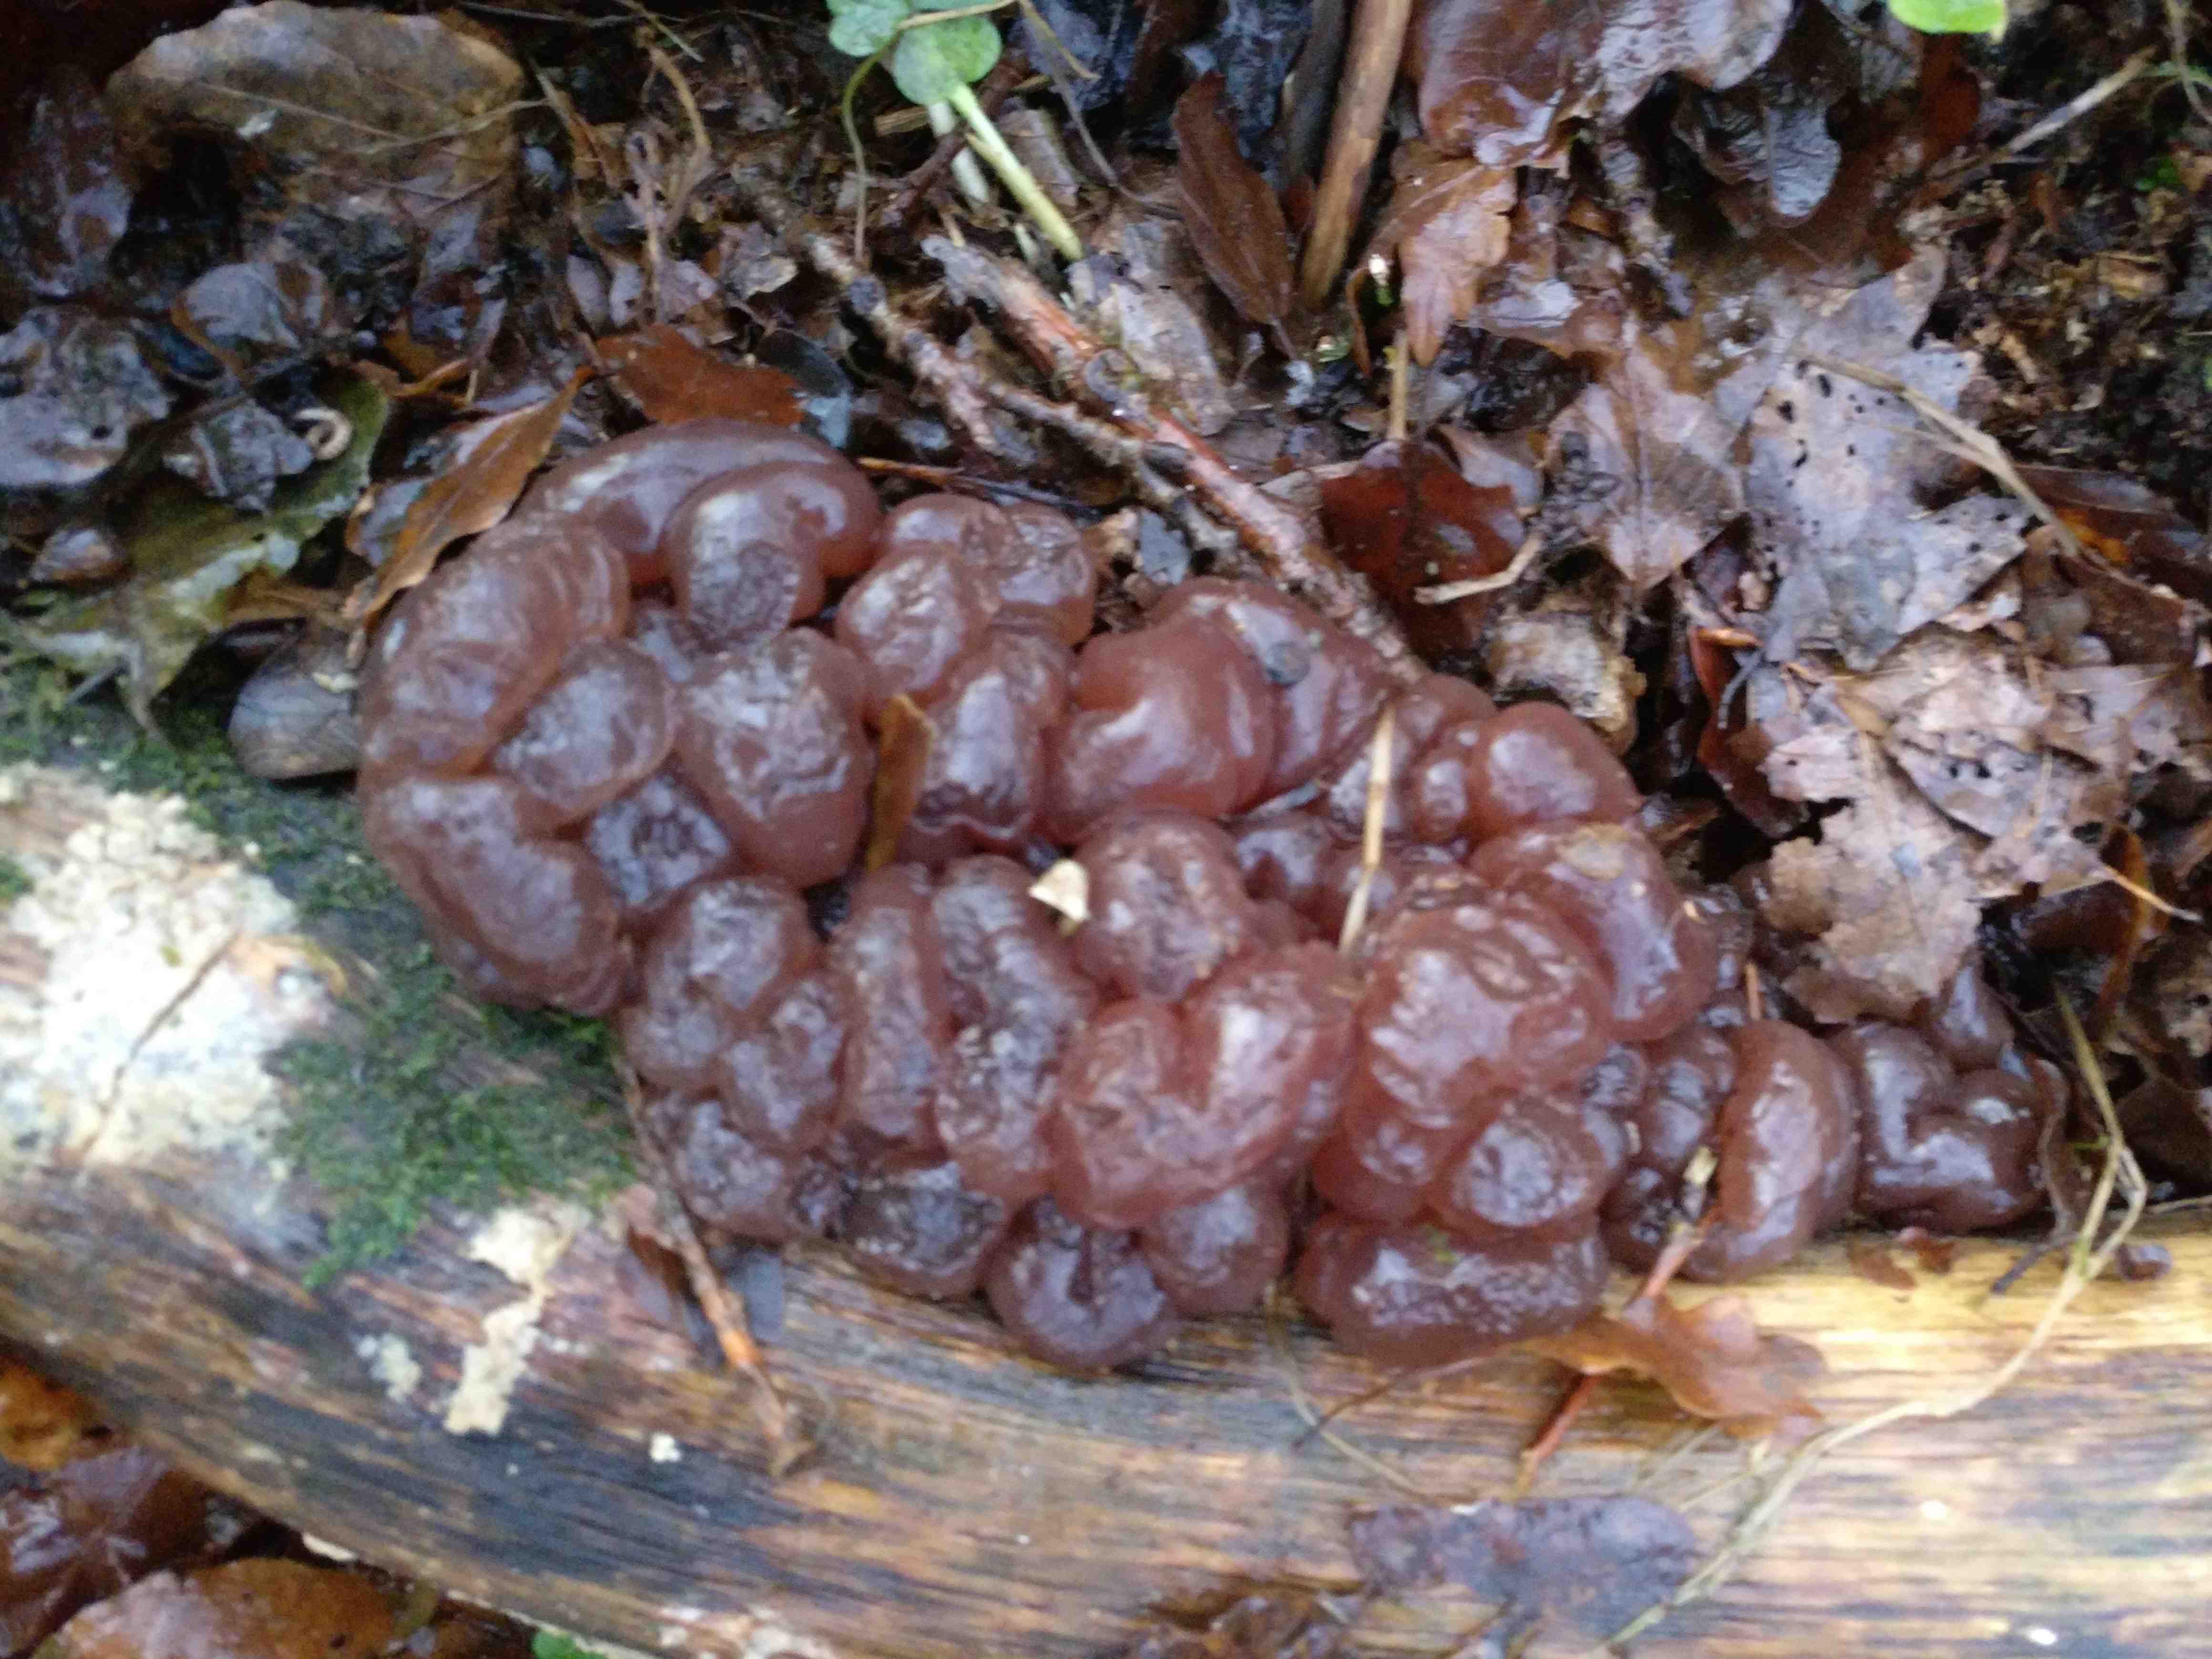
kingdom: Fungi
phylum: Ascomycota
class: Leotiomycetes
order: Helotiales
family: Gelatinodiscaceae
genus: Ascotremella
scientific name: Ascotremella faginea
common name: hjerne-bævreskive
